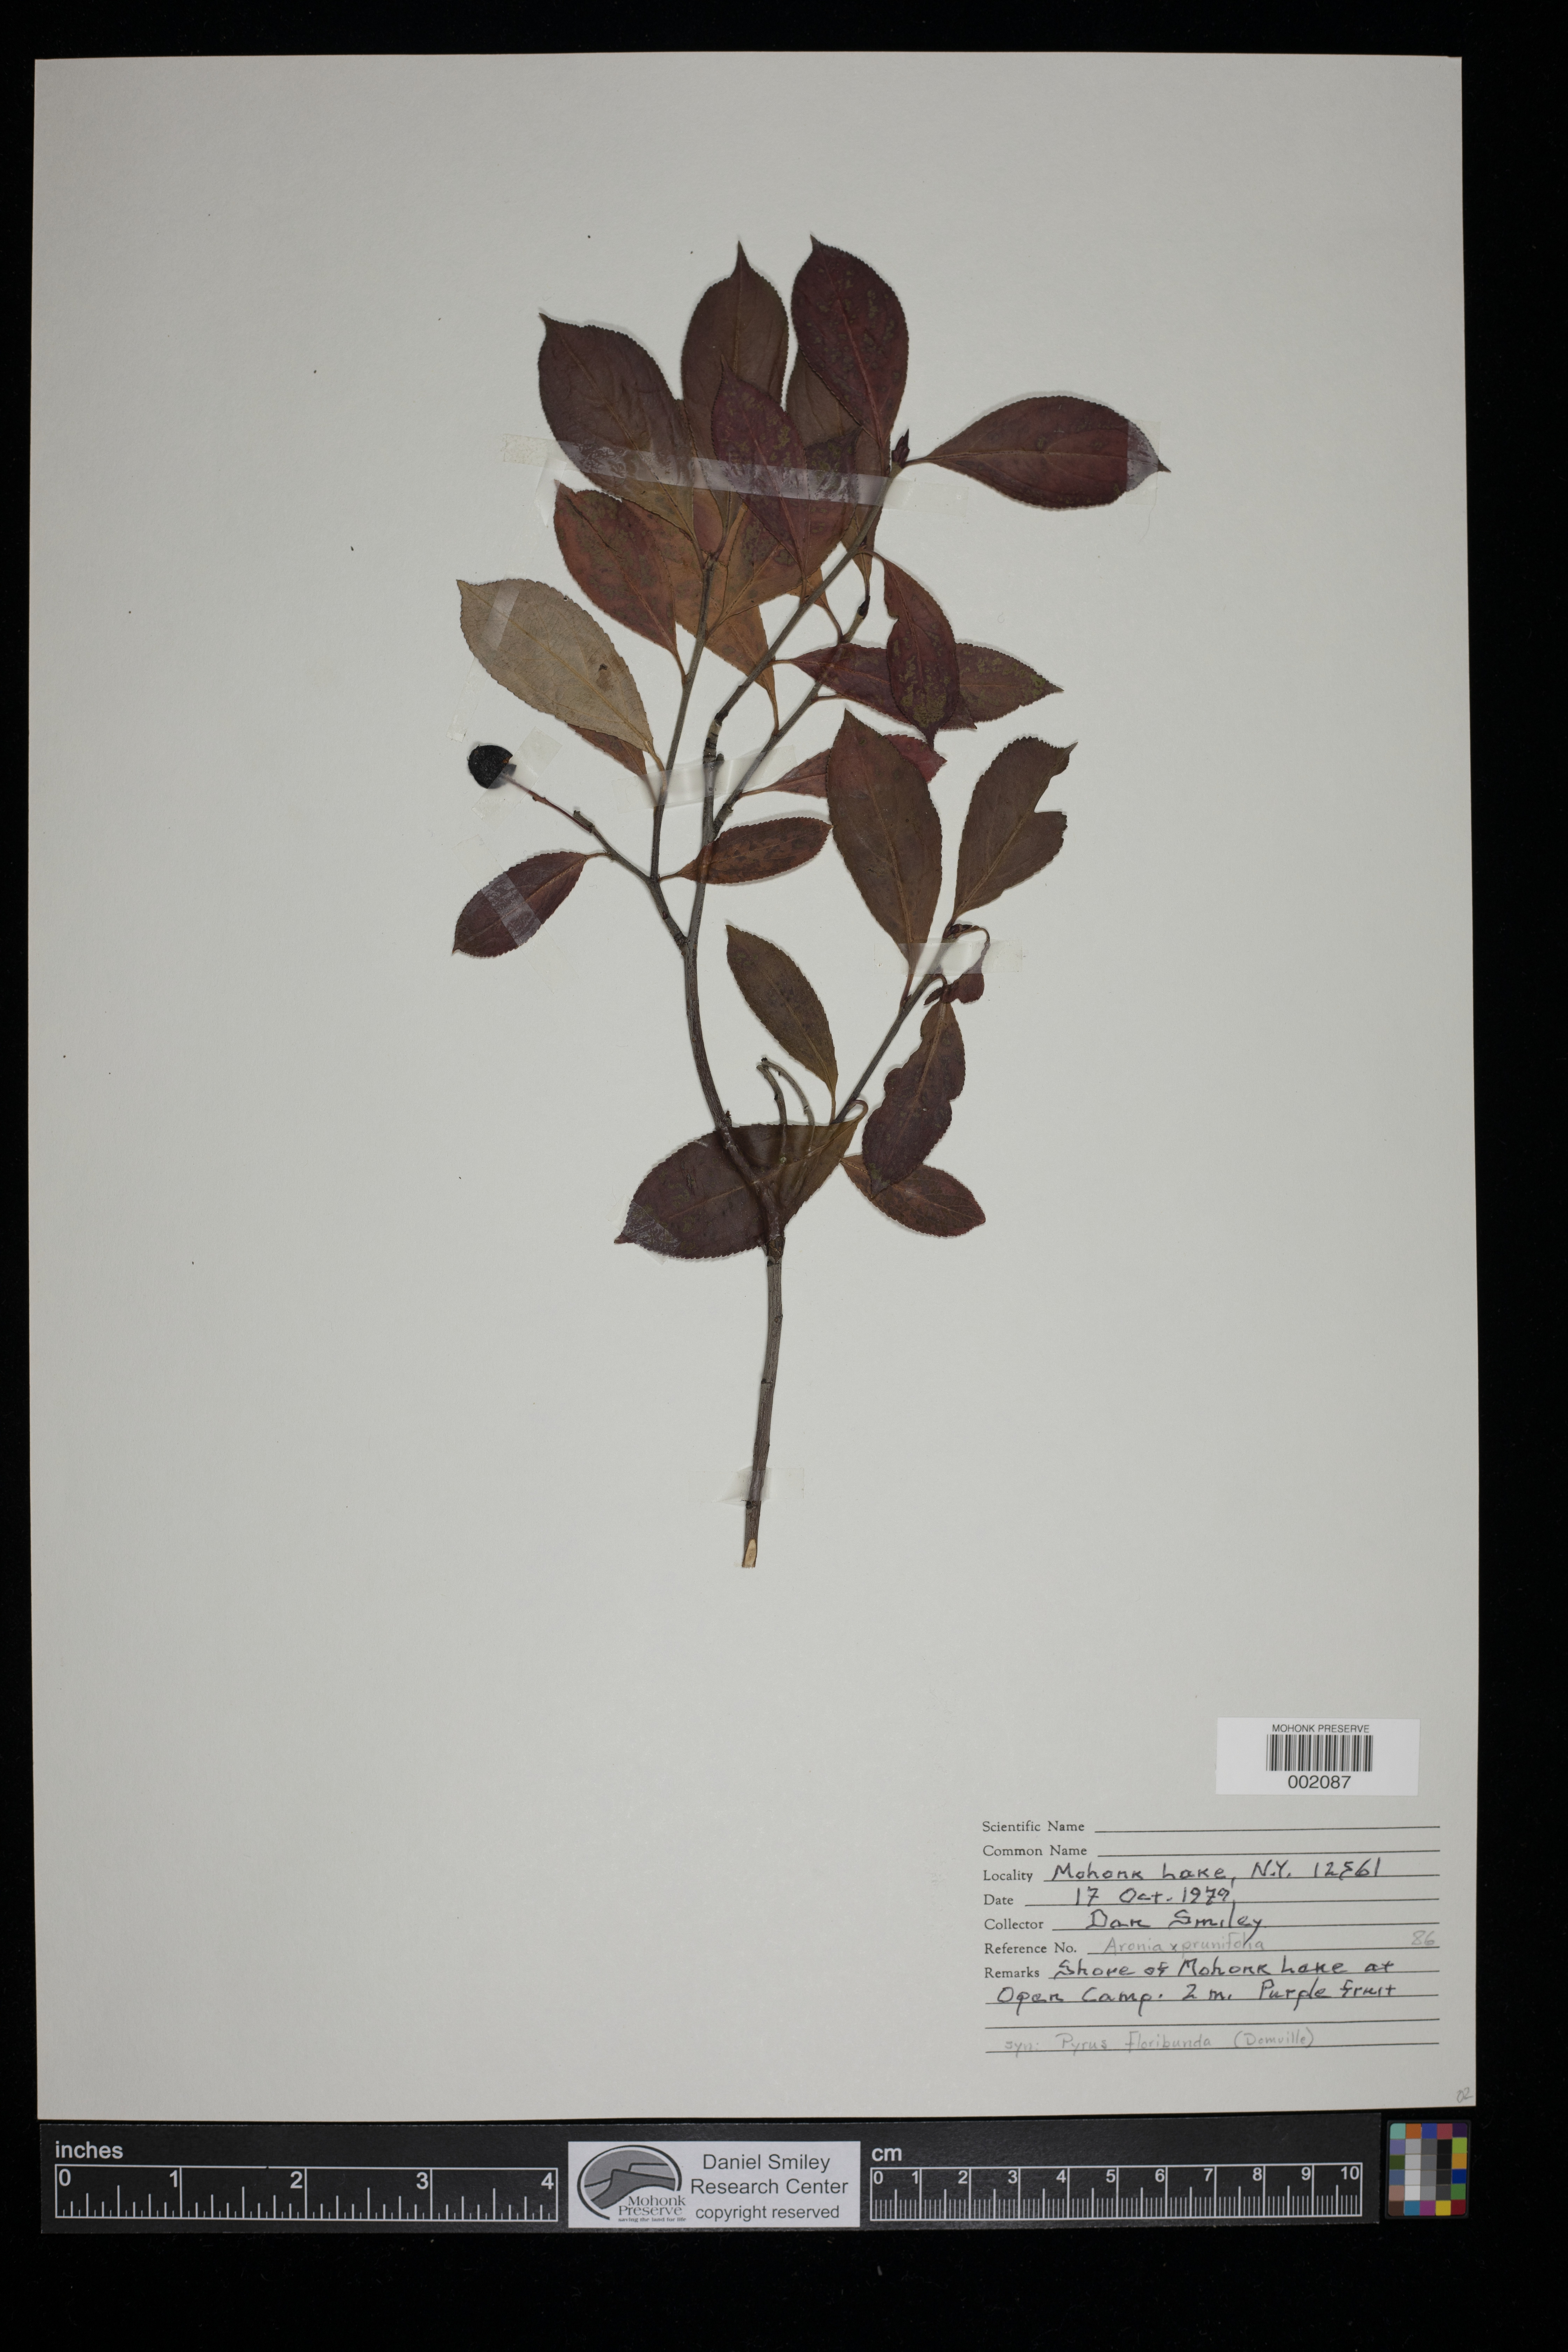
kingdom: Plantae
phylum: Tracheophyta
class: Magnoliopsida
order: Rosales
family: Rosaceae
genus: Aronia
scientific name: Aronia prunifolia
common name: Purple chokeberry
